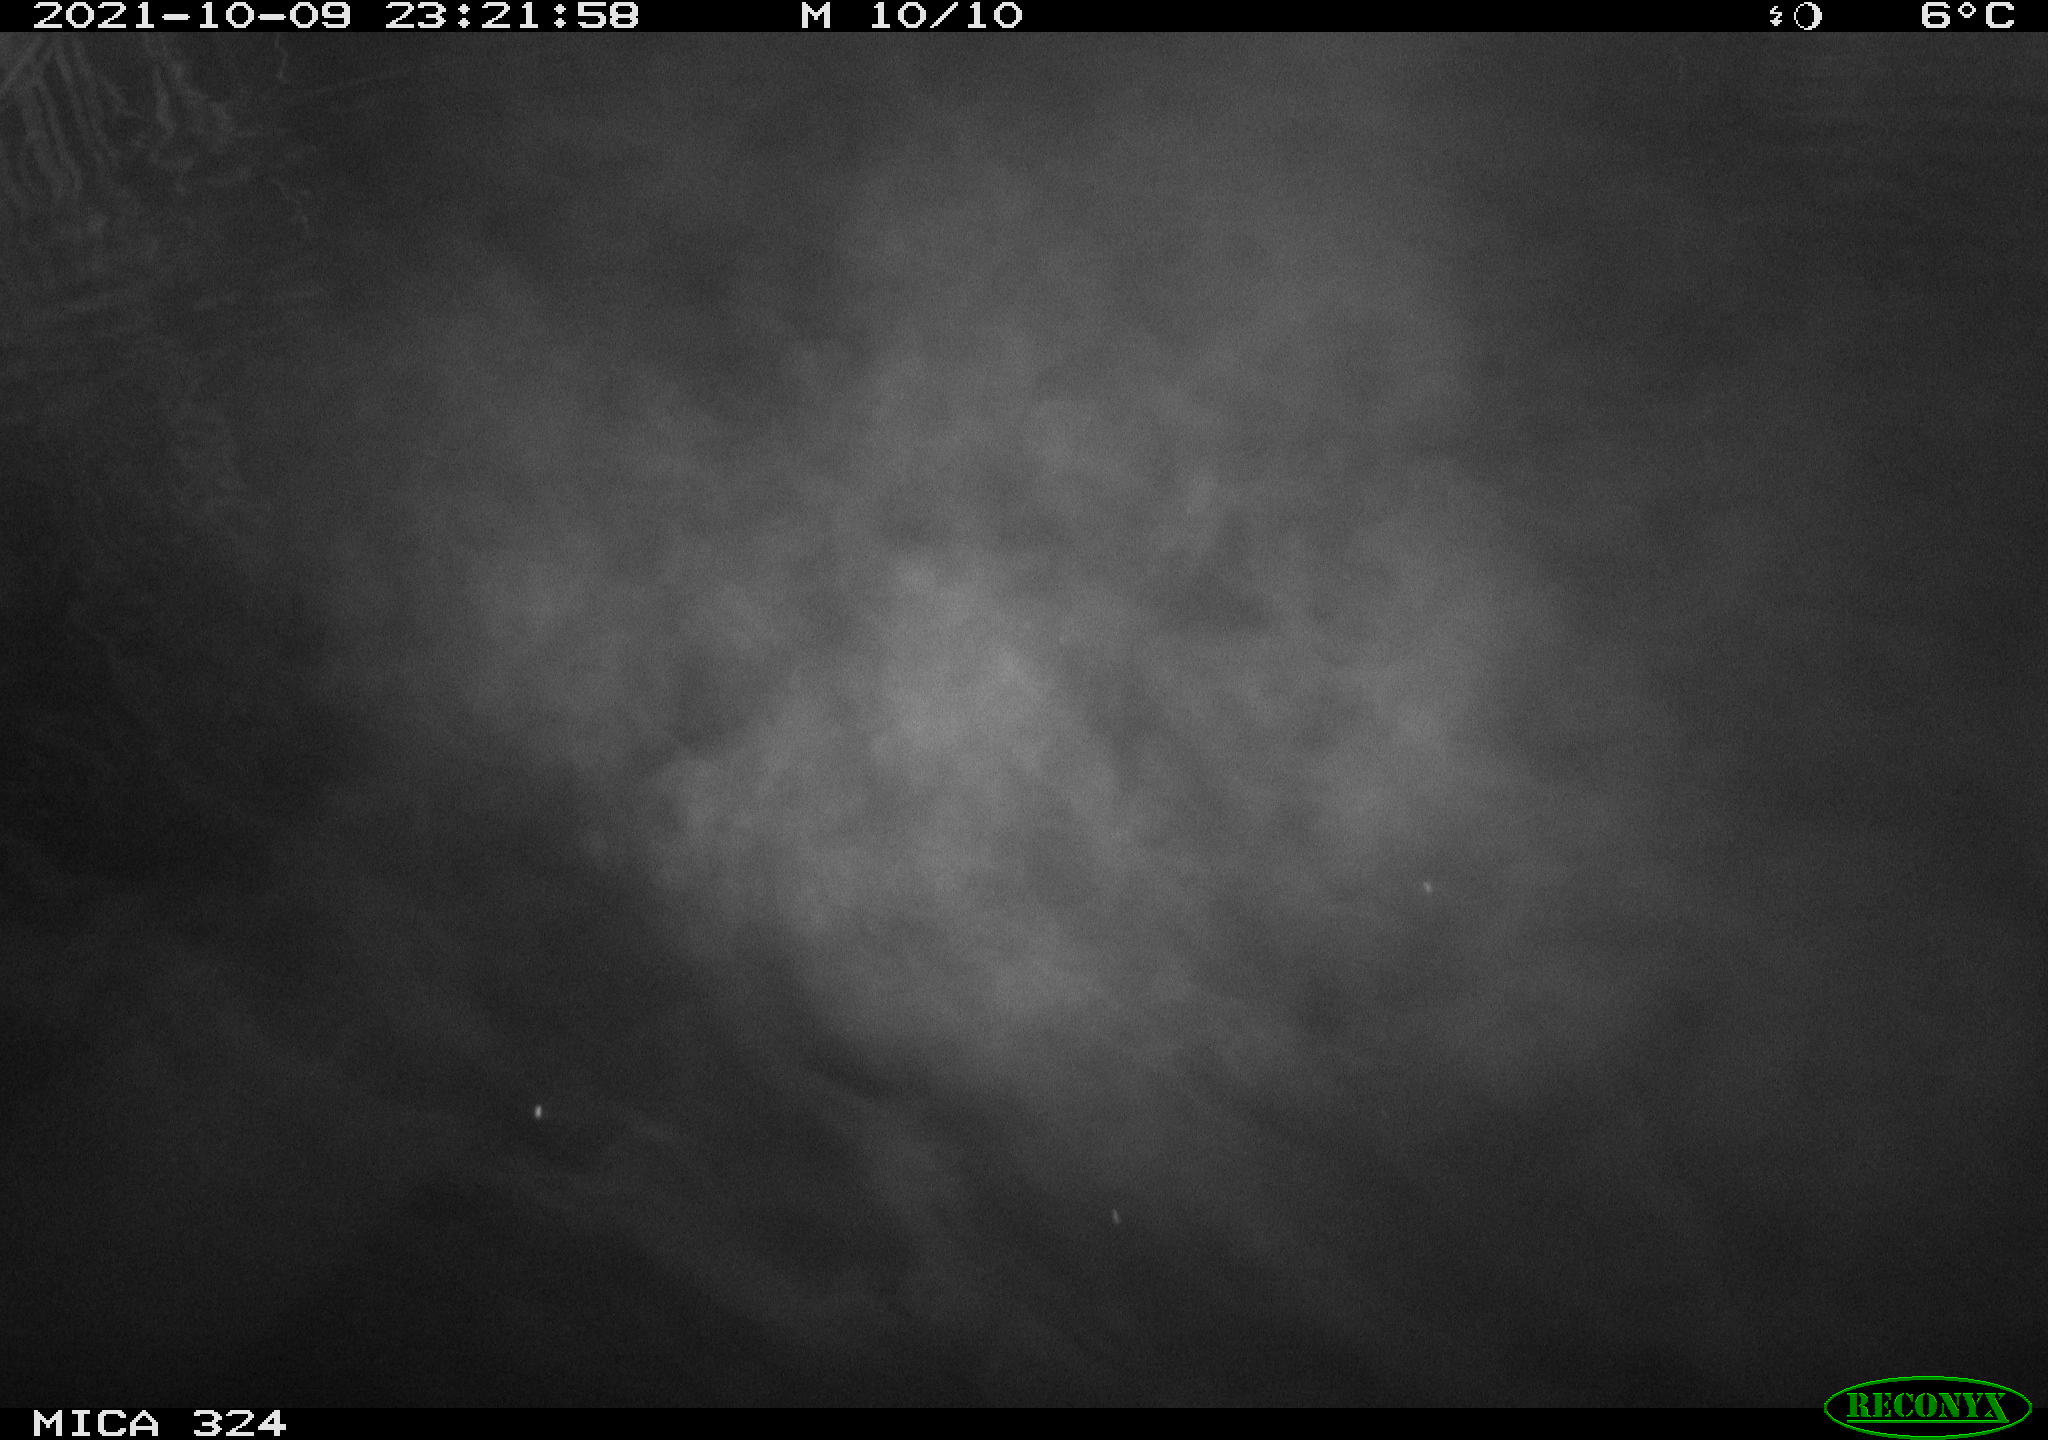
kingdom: Animalia
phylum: Chordata
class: Mammalia
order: Rodentia
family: Cricetidae
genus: Ondatra
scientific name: Ondatra zibethicus
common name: Muskrat
